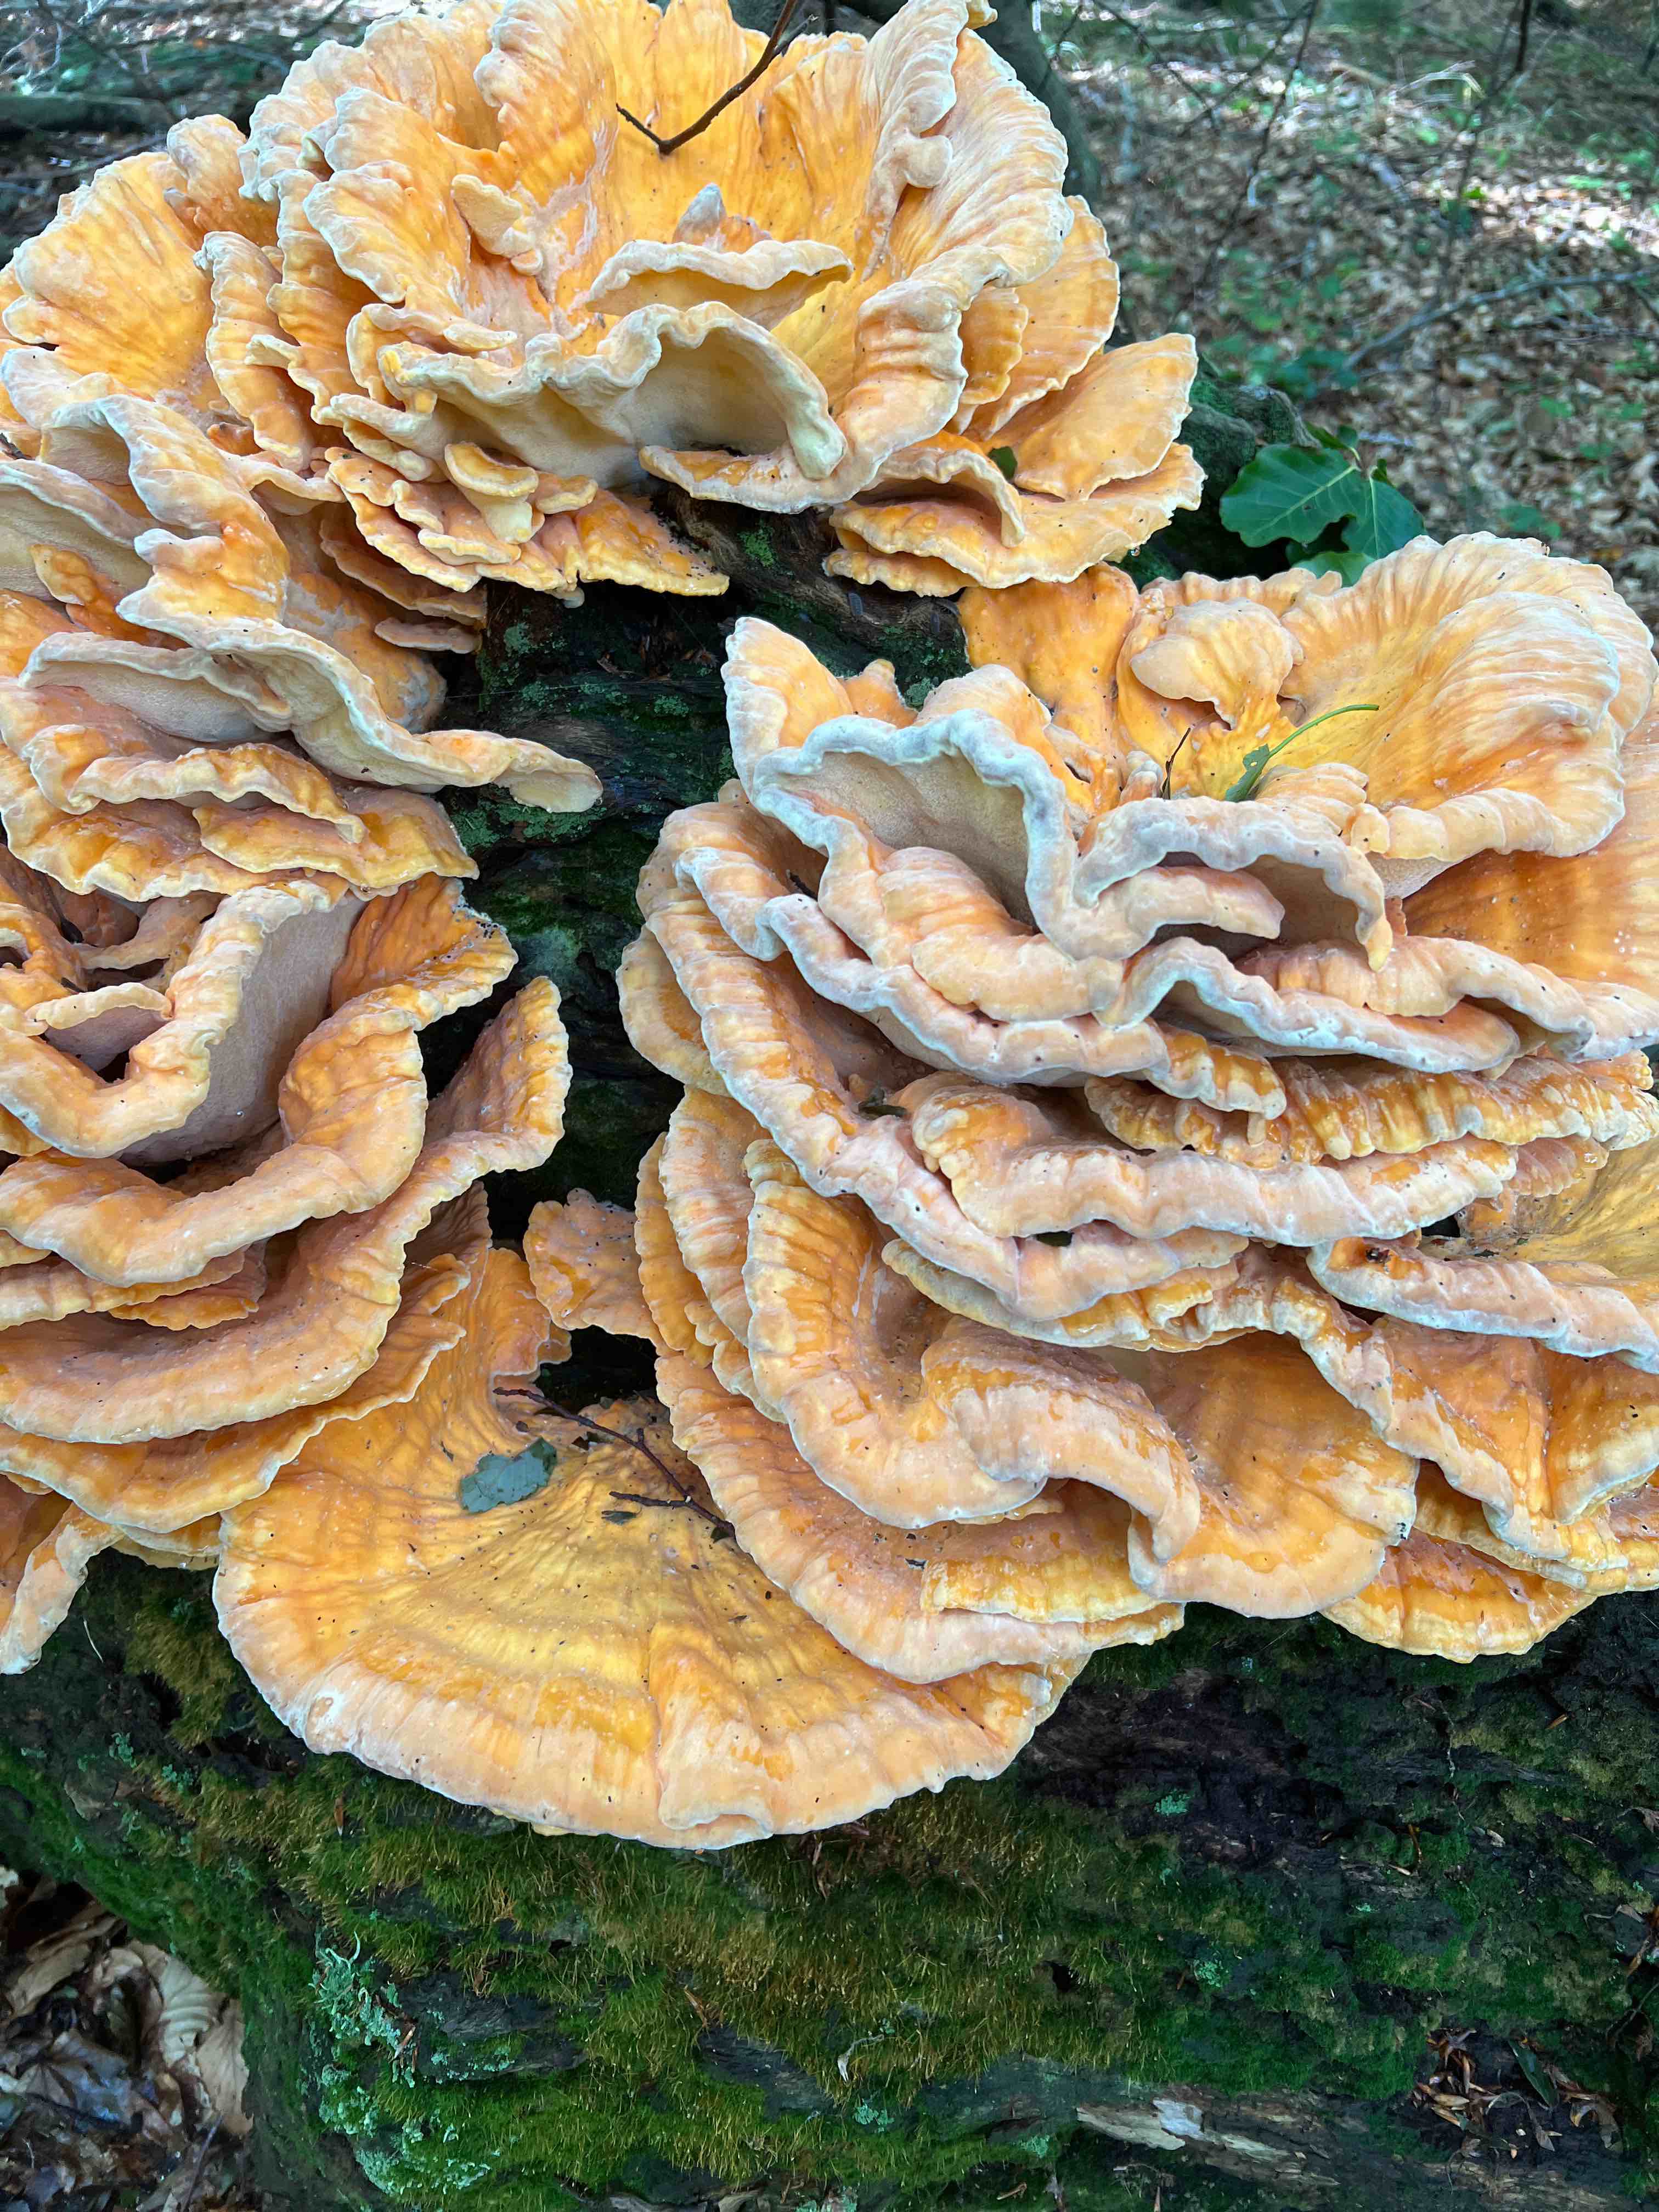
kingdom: Fungi
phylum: Basidiomycota
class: Agaricomycetes
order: Polyporales
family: Laetiporaceae
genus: Laetiporus
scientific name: Laetiporus sulphureus
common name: svovlporesvamp
